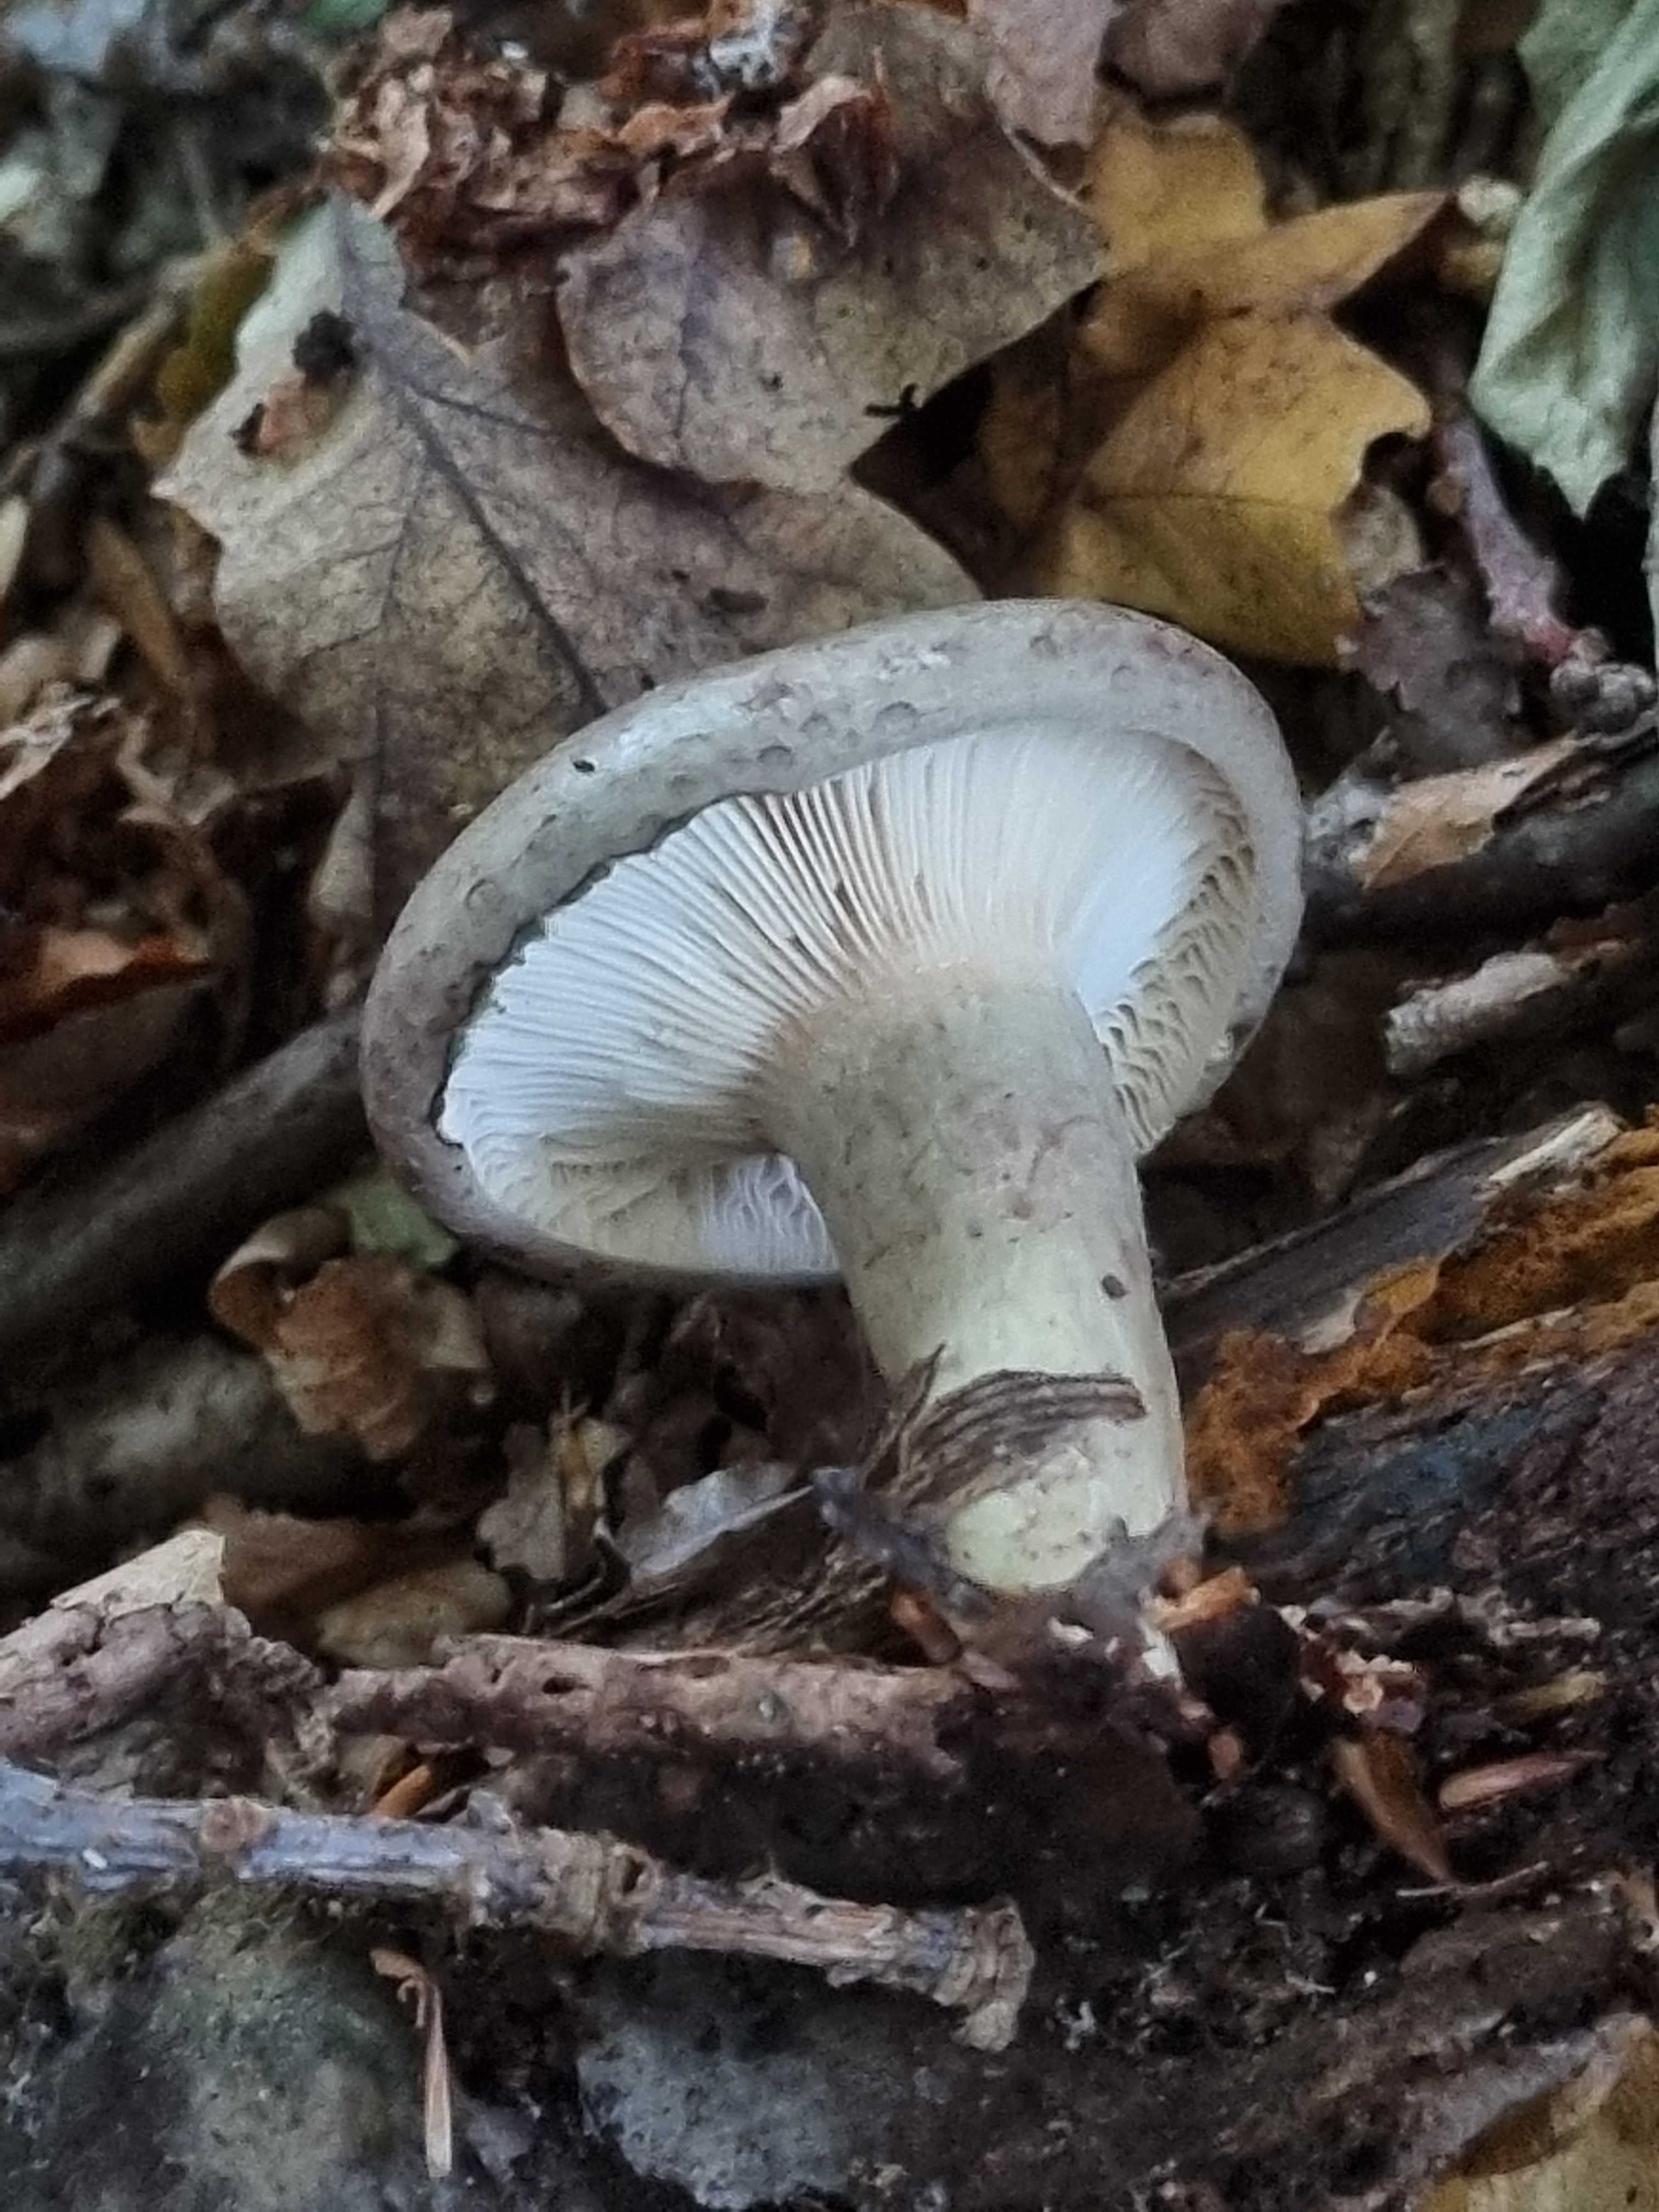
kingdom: Fungi
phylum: Basidiomycota
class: Agaricomycetes
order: Russulales
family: Russulaceae
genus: Lactarius
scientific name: Lactarius blennius
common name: dråbeplettet mælkehat
